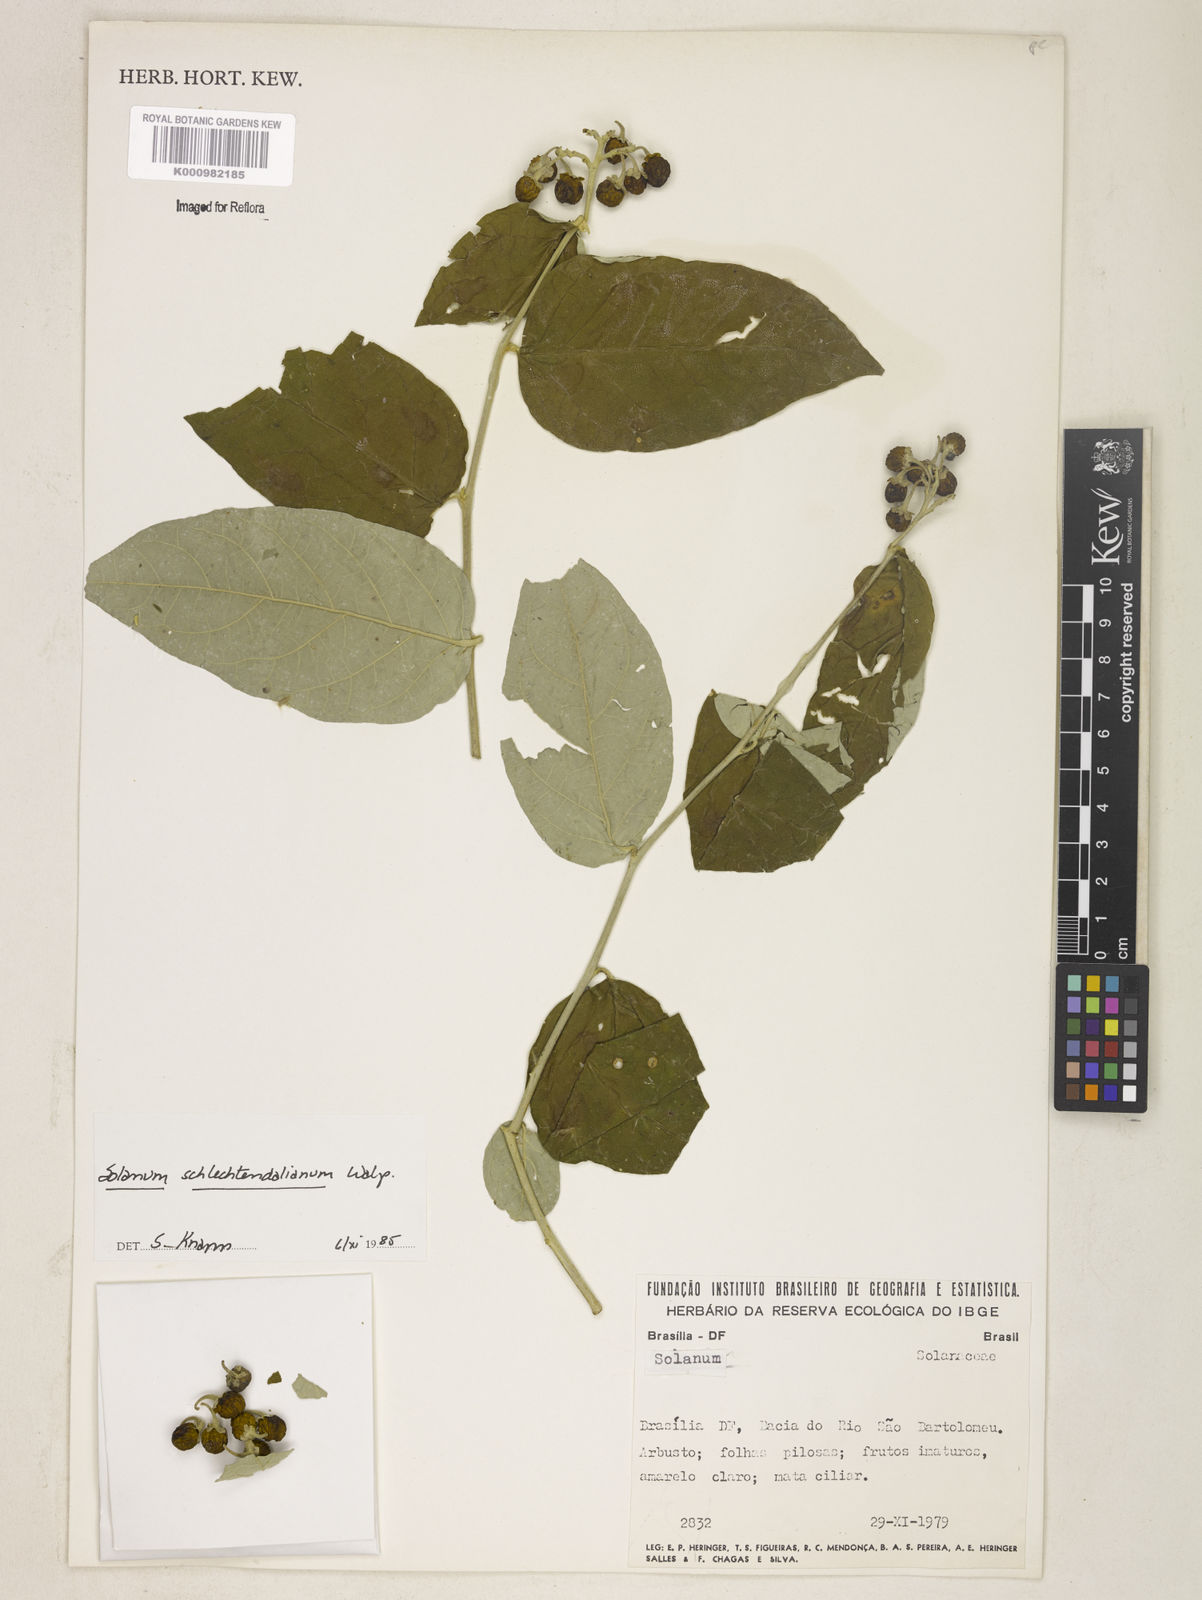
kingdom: Plantae
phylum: Tracheophyta
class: Magnoliopsida
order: Solanales
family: Solanaceae
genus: Solanum
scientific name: Solanum schlechtendalianum
